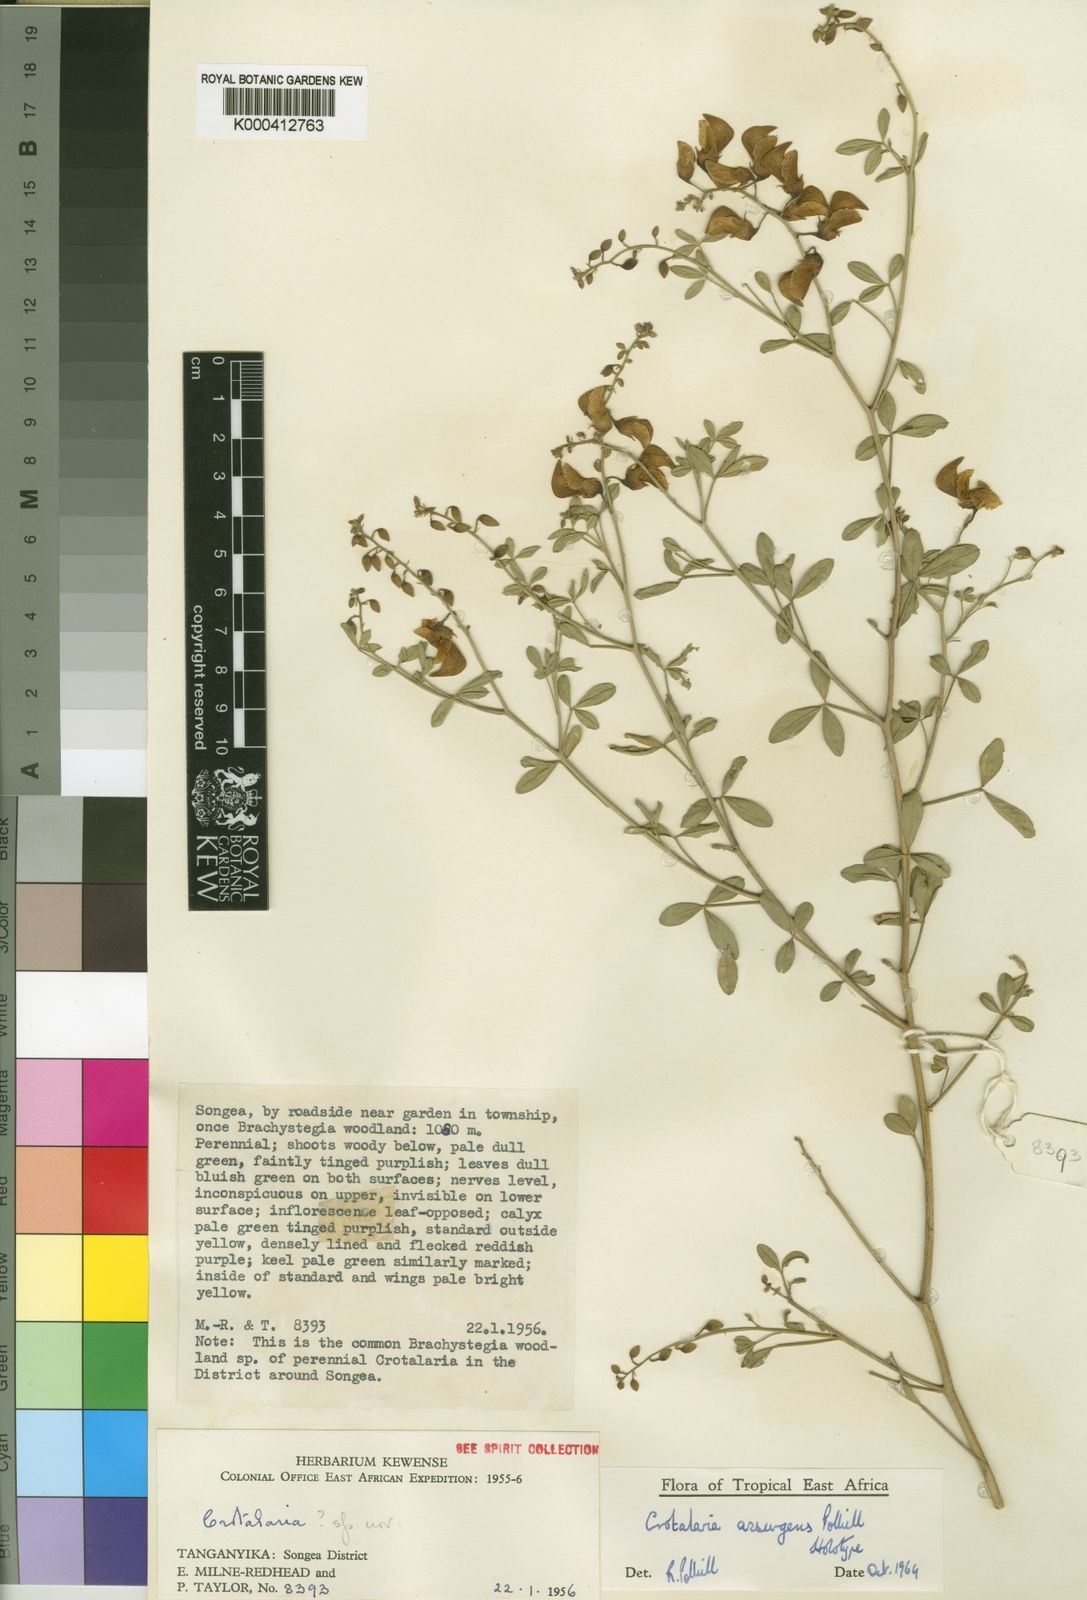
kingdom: Plantae
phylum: Tracheophyta
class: Magnoliopsida
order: Fabales
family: Fabaceae
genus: Crotalaria
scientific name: Crotalaria assurgens
